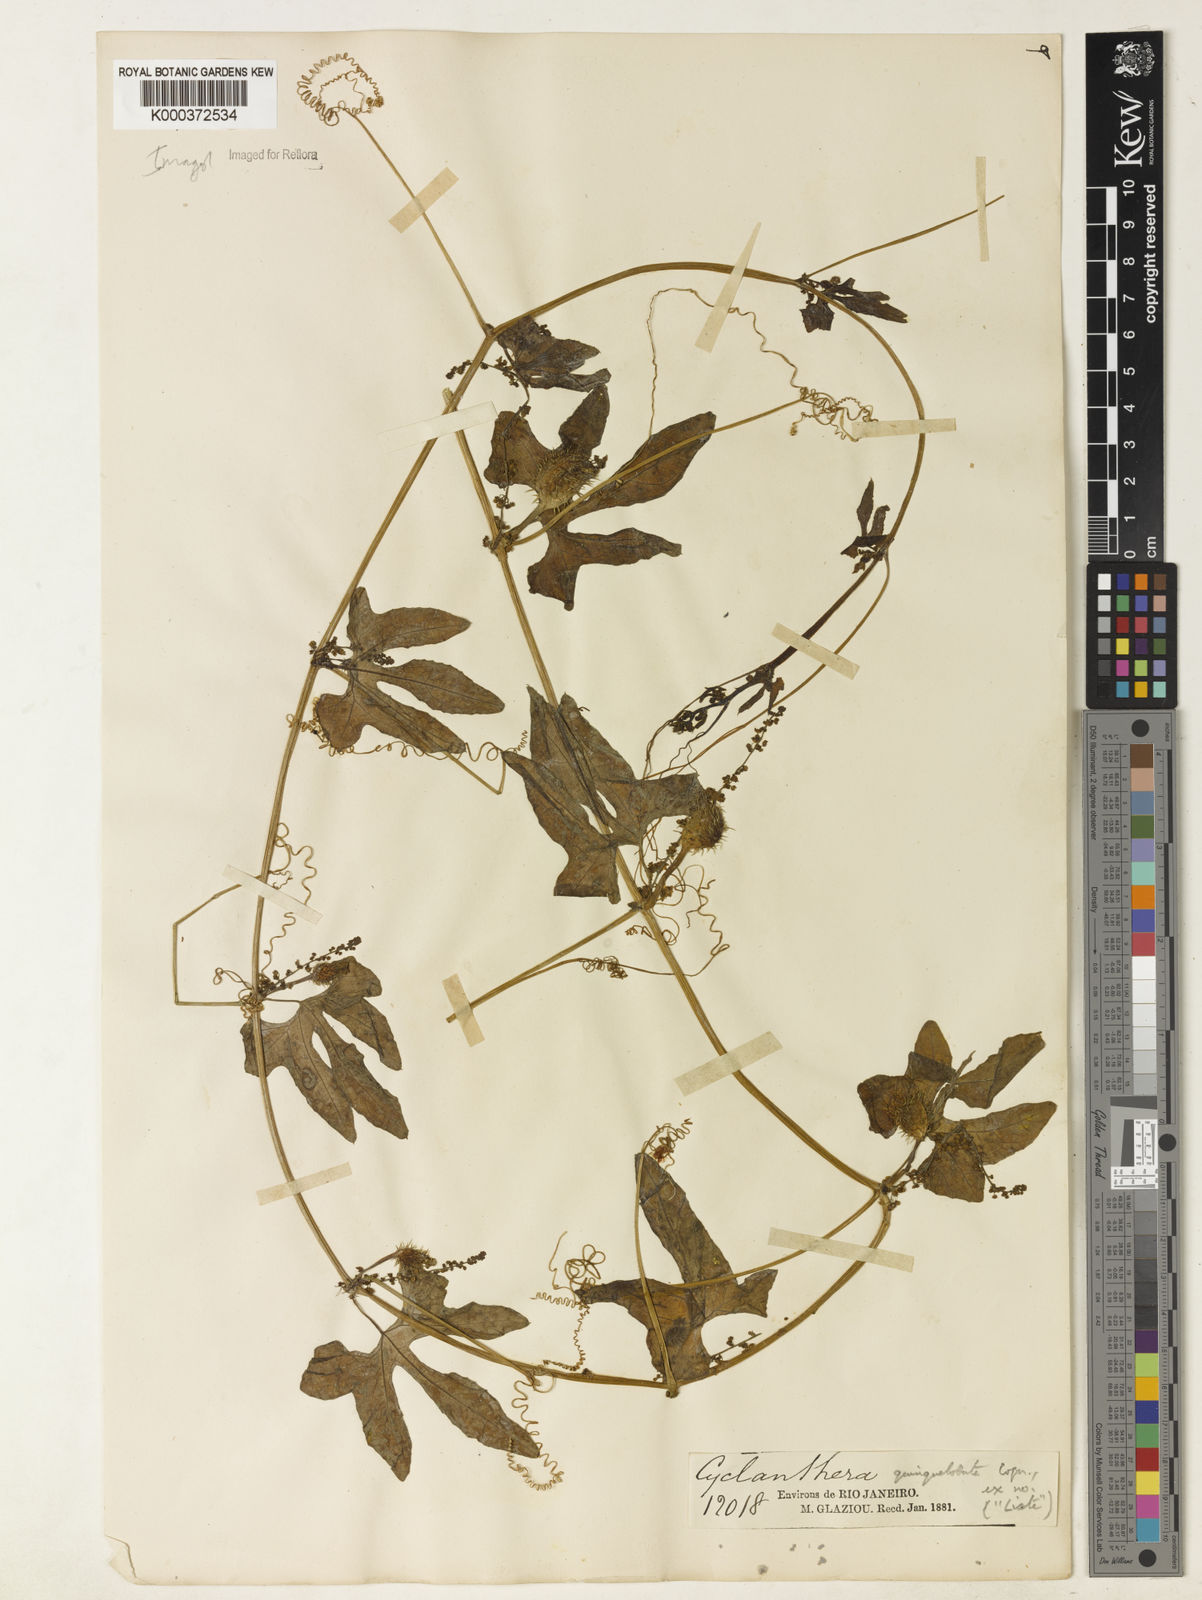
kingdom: Plantae
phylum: Tracheophyta
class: Magnoliopsida
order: Cucurbitales
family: Cucurbitaceae
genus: Cyclanthera
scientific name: Cyclanthera quinquelobata
